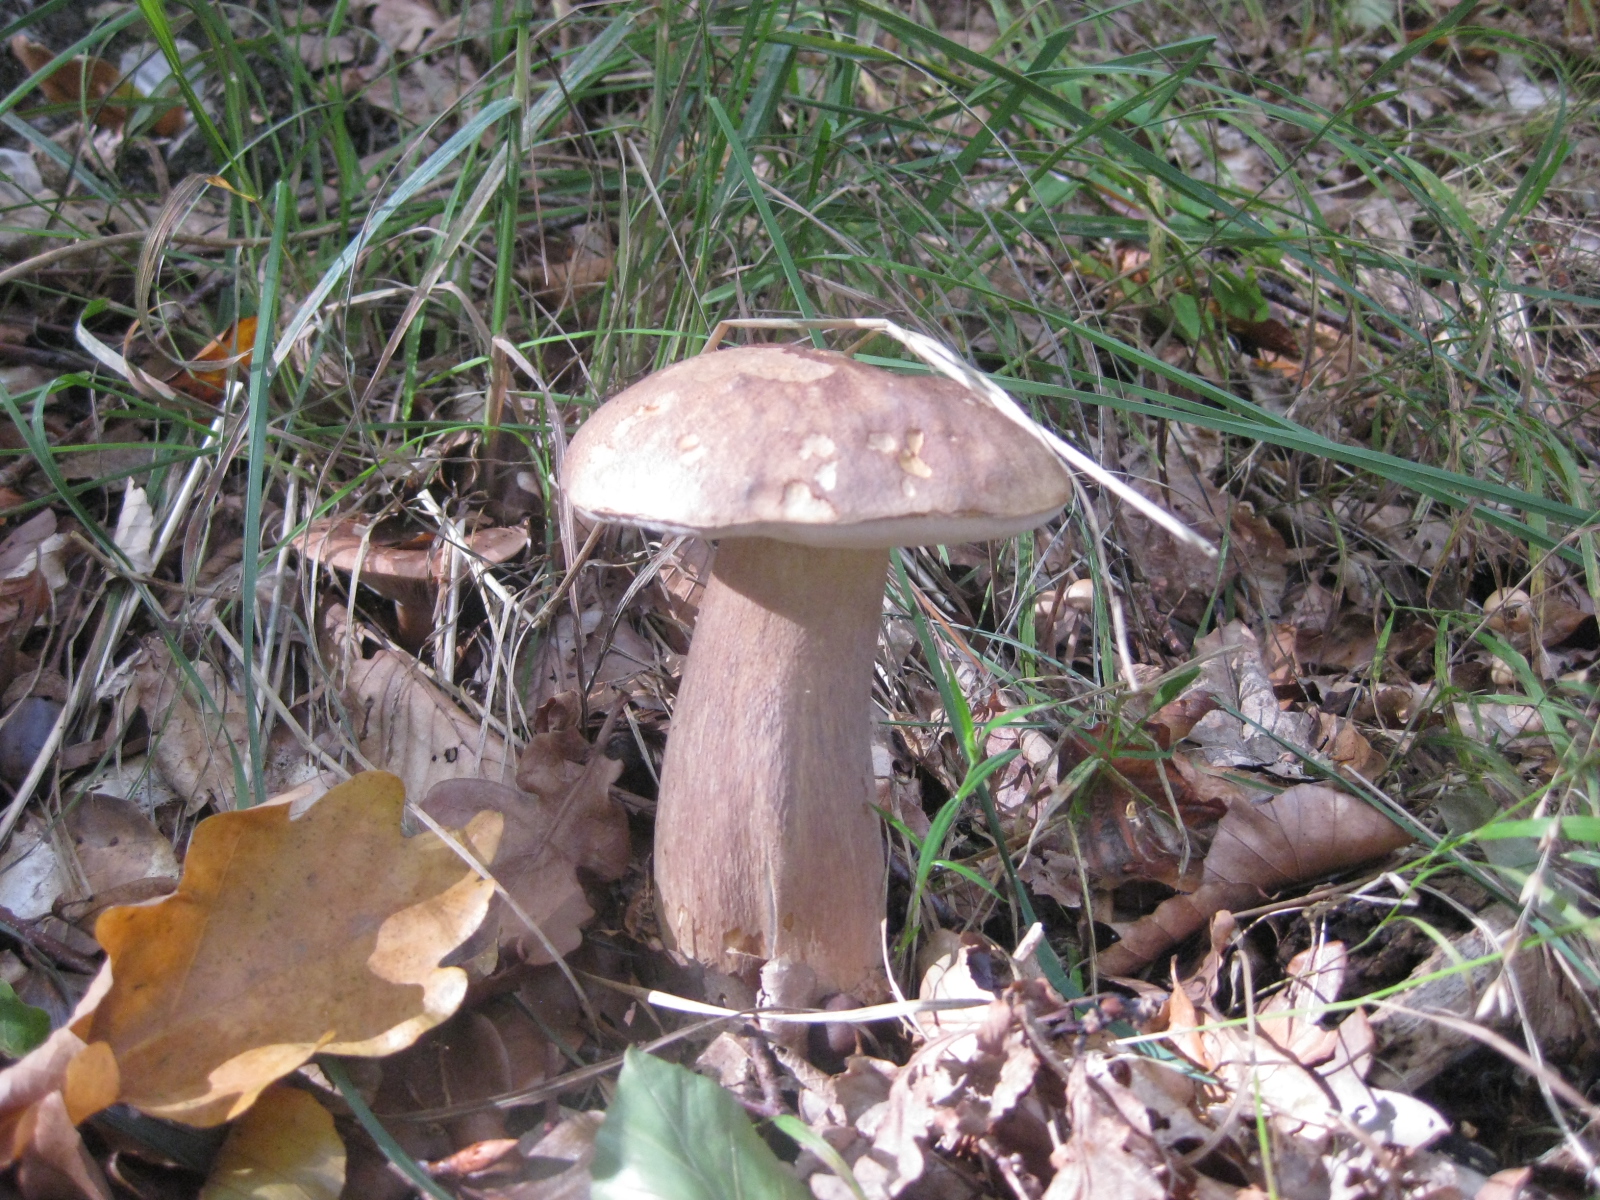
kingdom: Fungi
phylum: Basidiomycota
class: Agaricomycetes
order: Boletales
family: Boletaceae
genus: Boletus
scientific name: Boletus reticulatus
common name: sommer-rørhat
